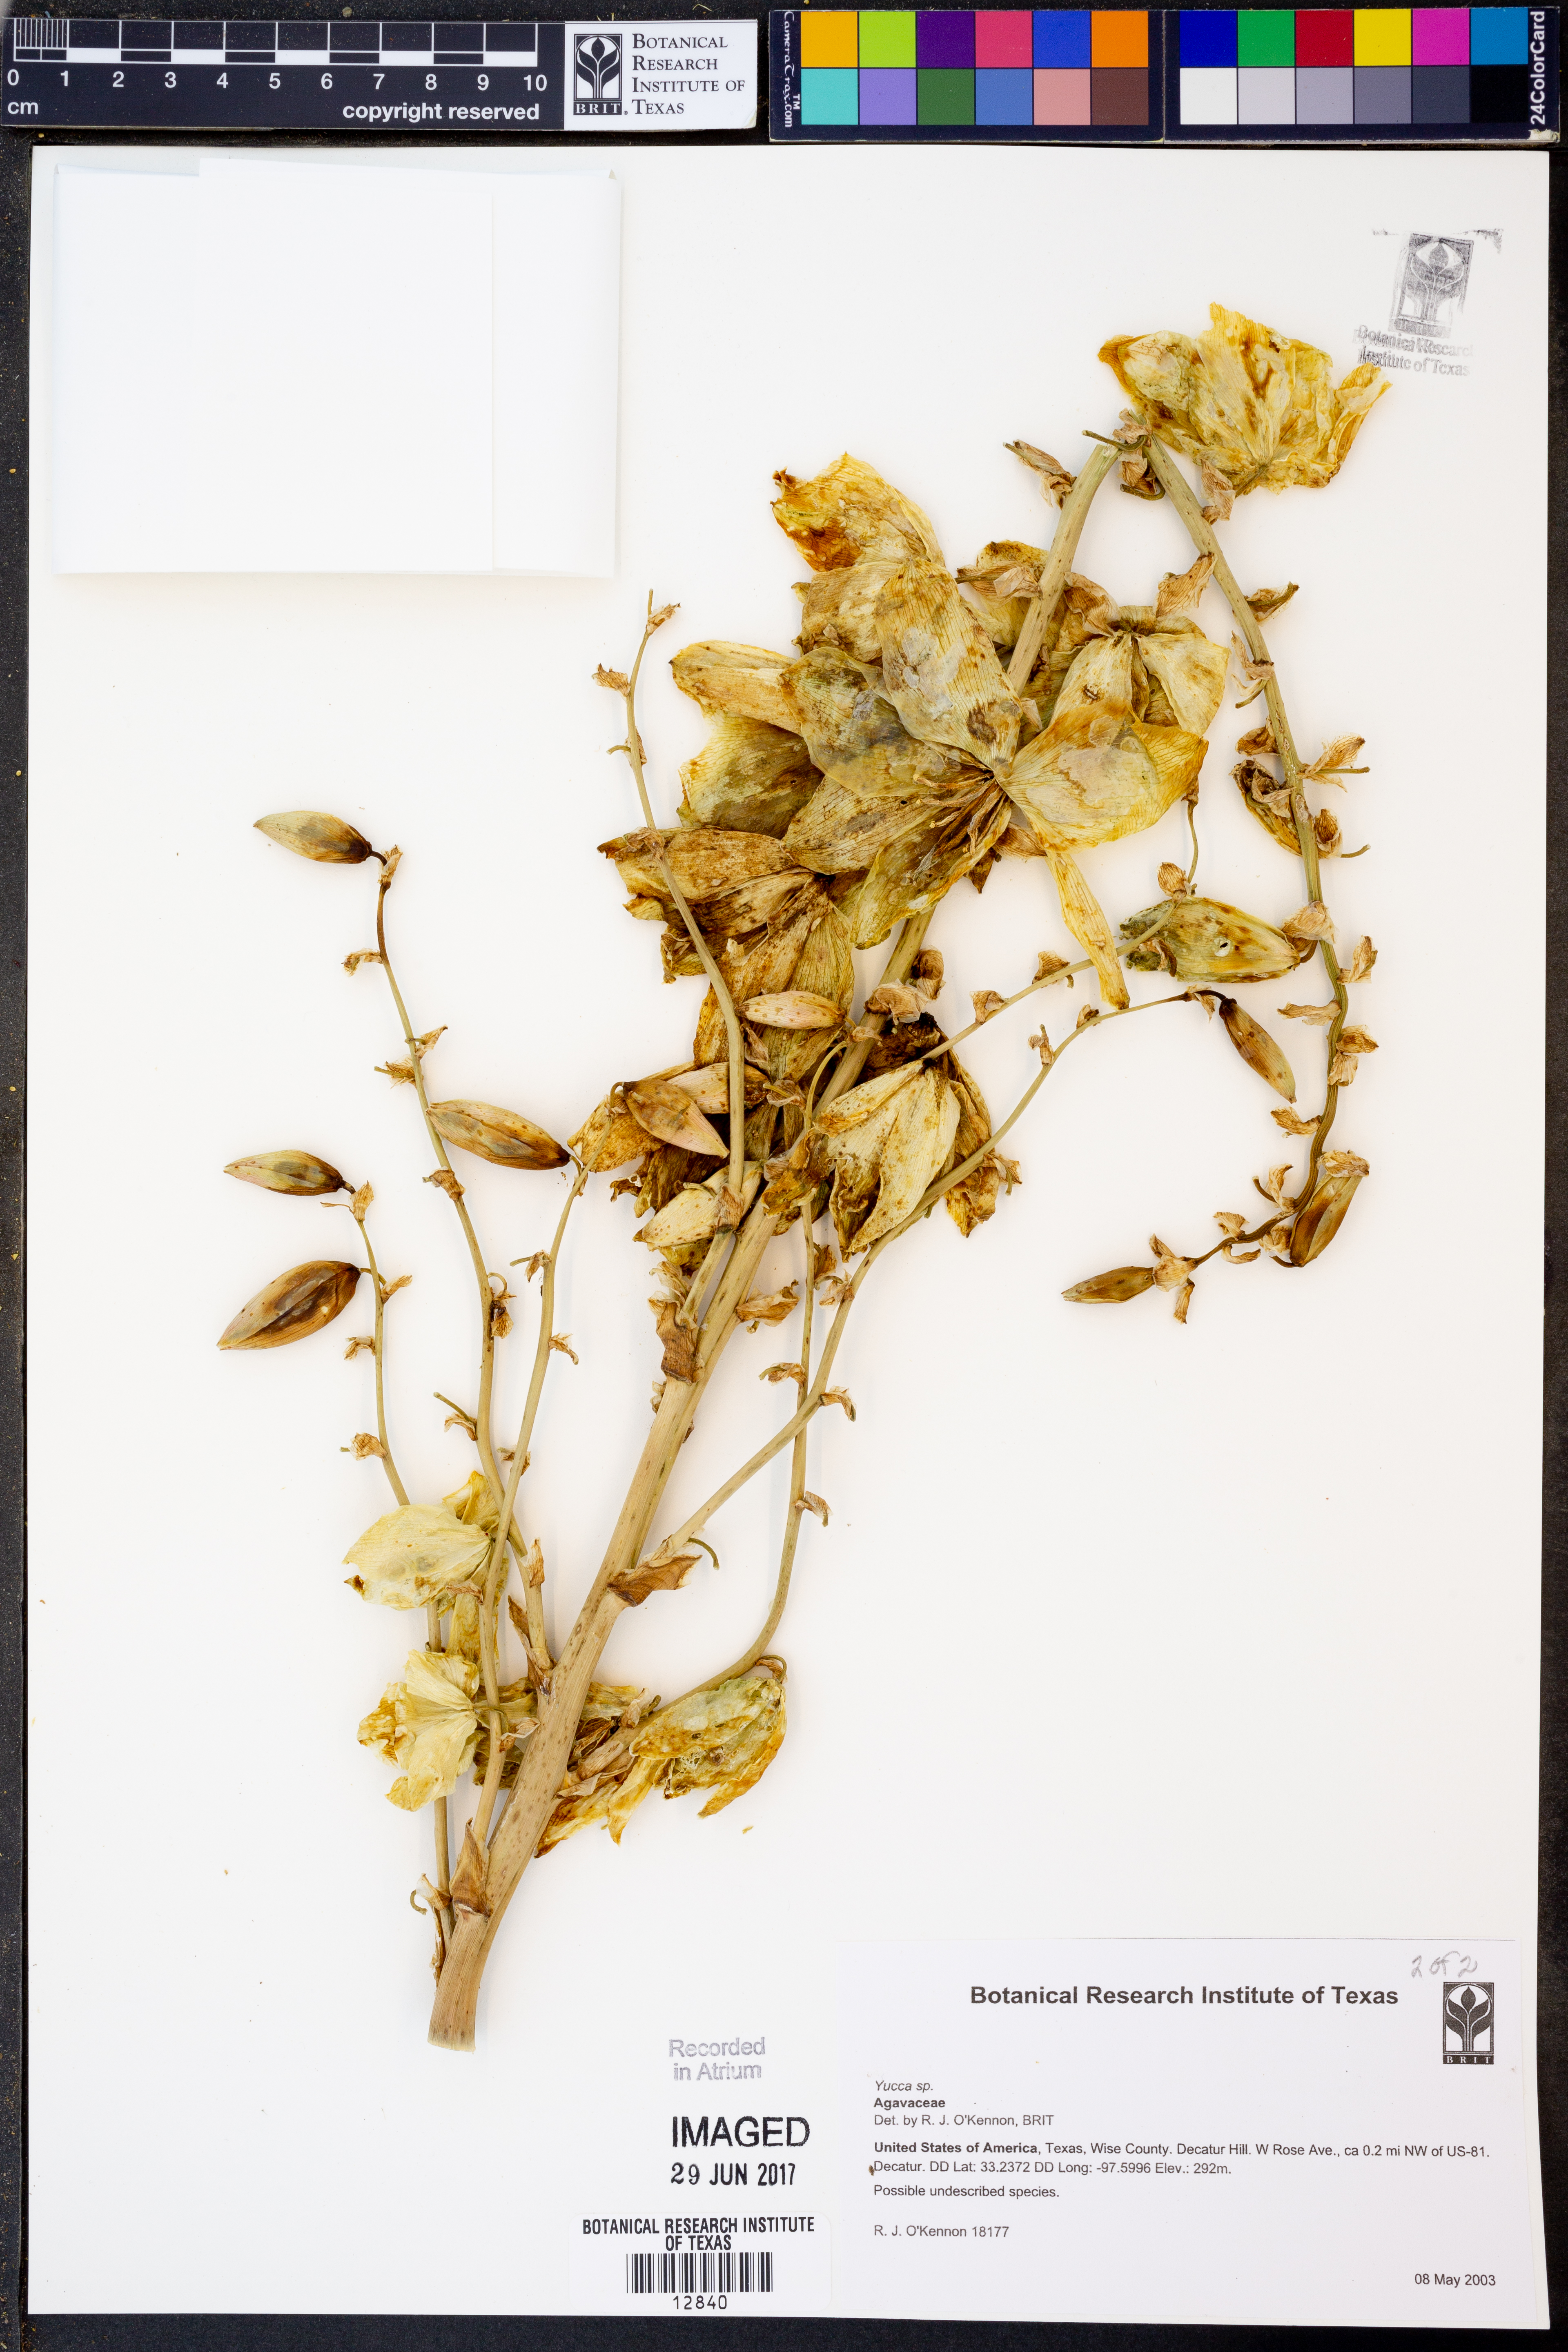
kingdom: Plantae
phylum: Tracheophyta
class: Liliopsida
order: Asparagales
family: Asparagaceae
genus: Yucca
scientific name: Yucca
